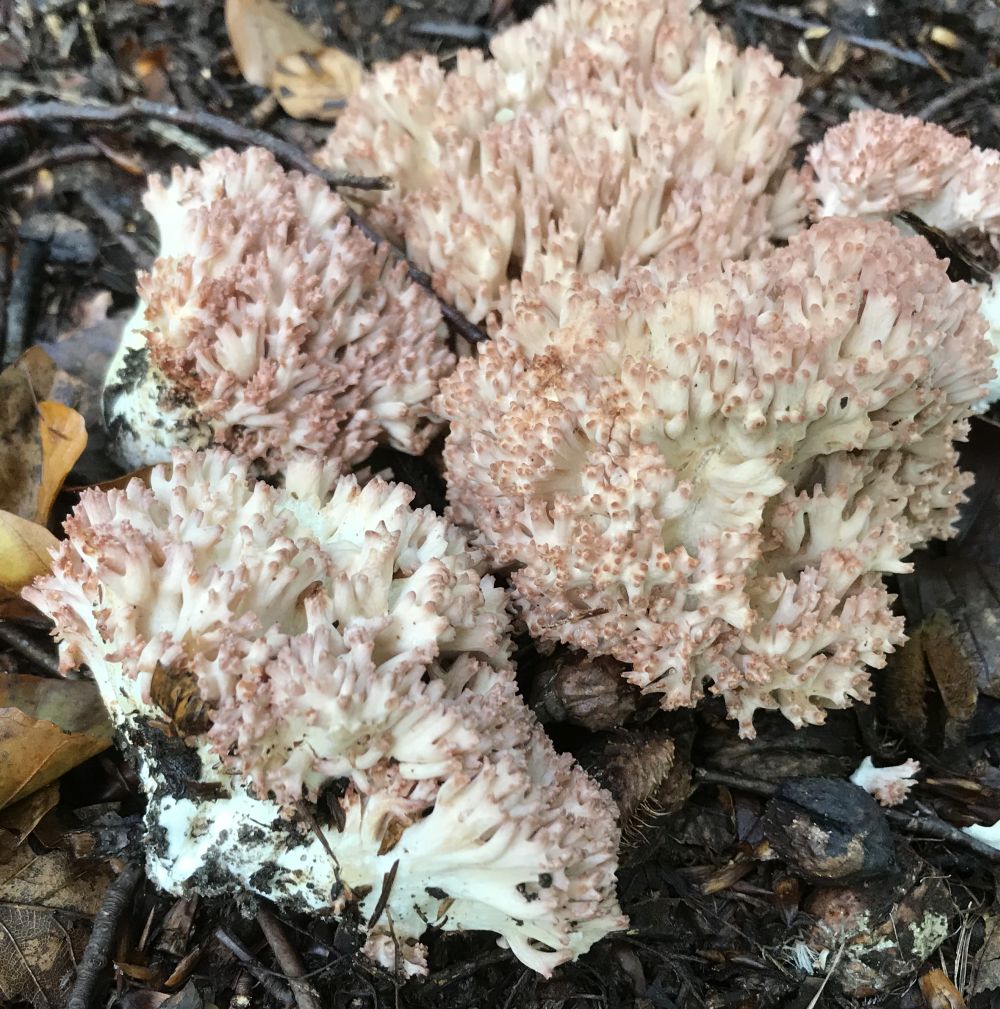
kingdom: Fungi
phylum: Basidiomycota
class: Agaricomycetes
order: Gomphales
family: Gomphaceae
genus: Ramaria
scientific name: Ramaria botrytis
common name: drue-koralsvamp
